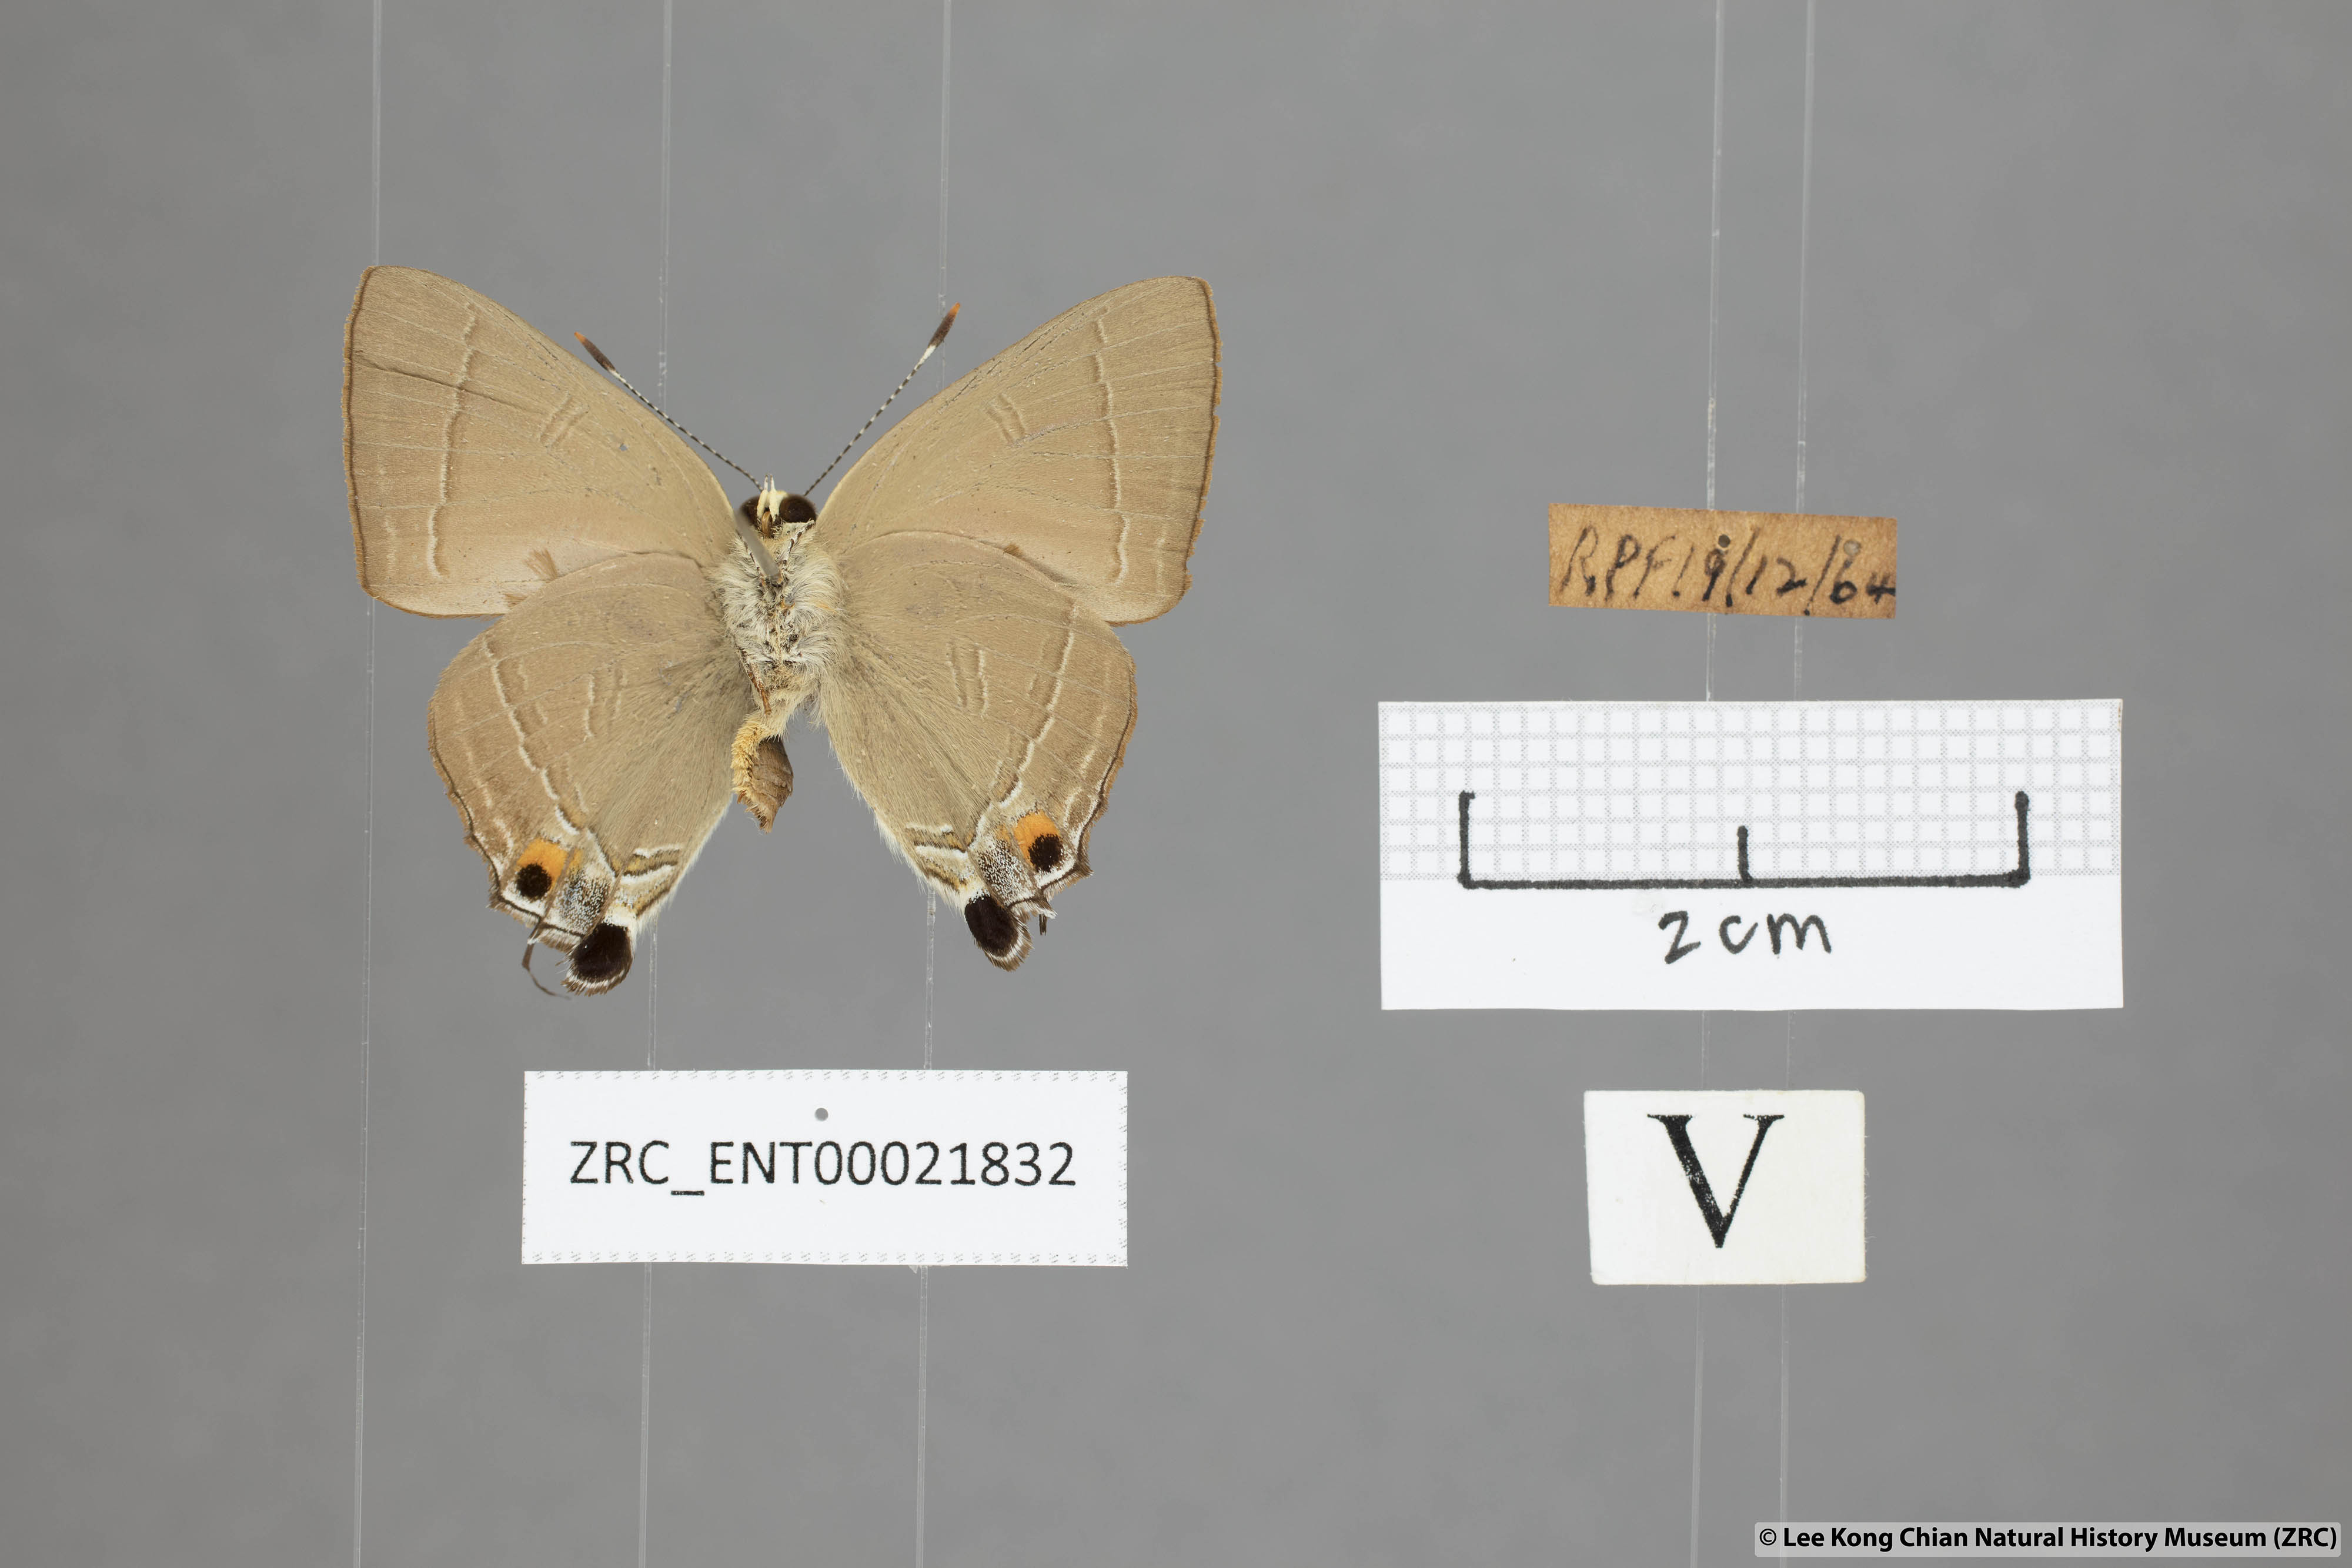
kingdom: Animalia
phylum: Arthropoda
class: Insecta
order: Lepidoptera
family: Lycaenidae
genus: Rapala
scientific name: Rapala iarbas
